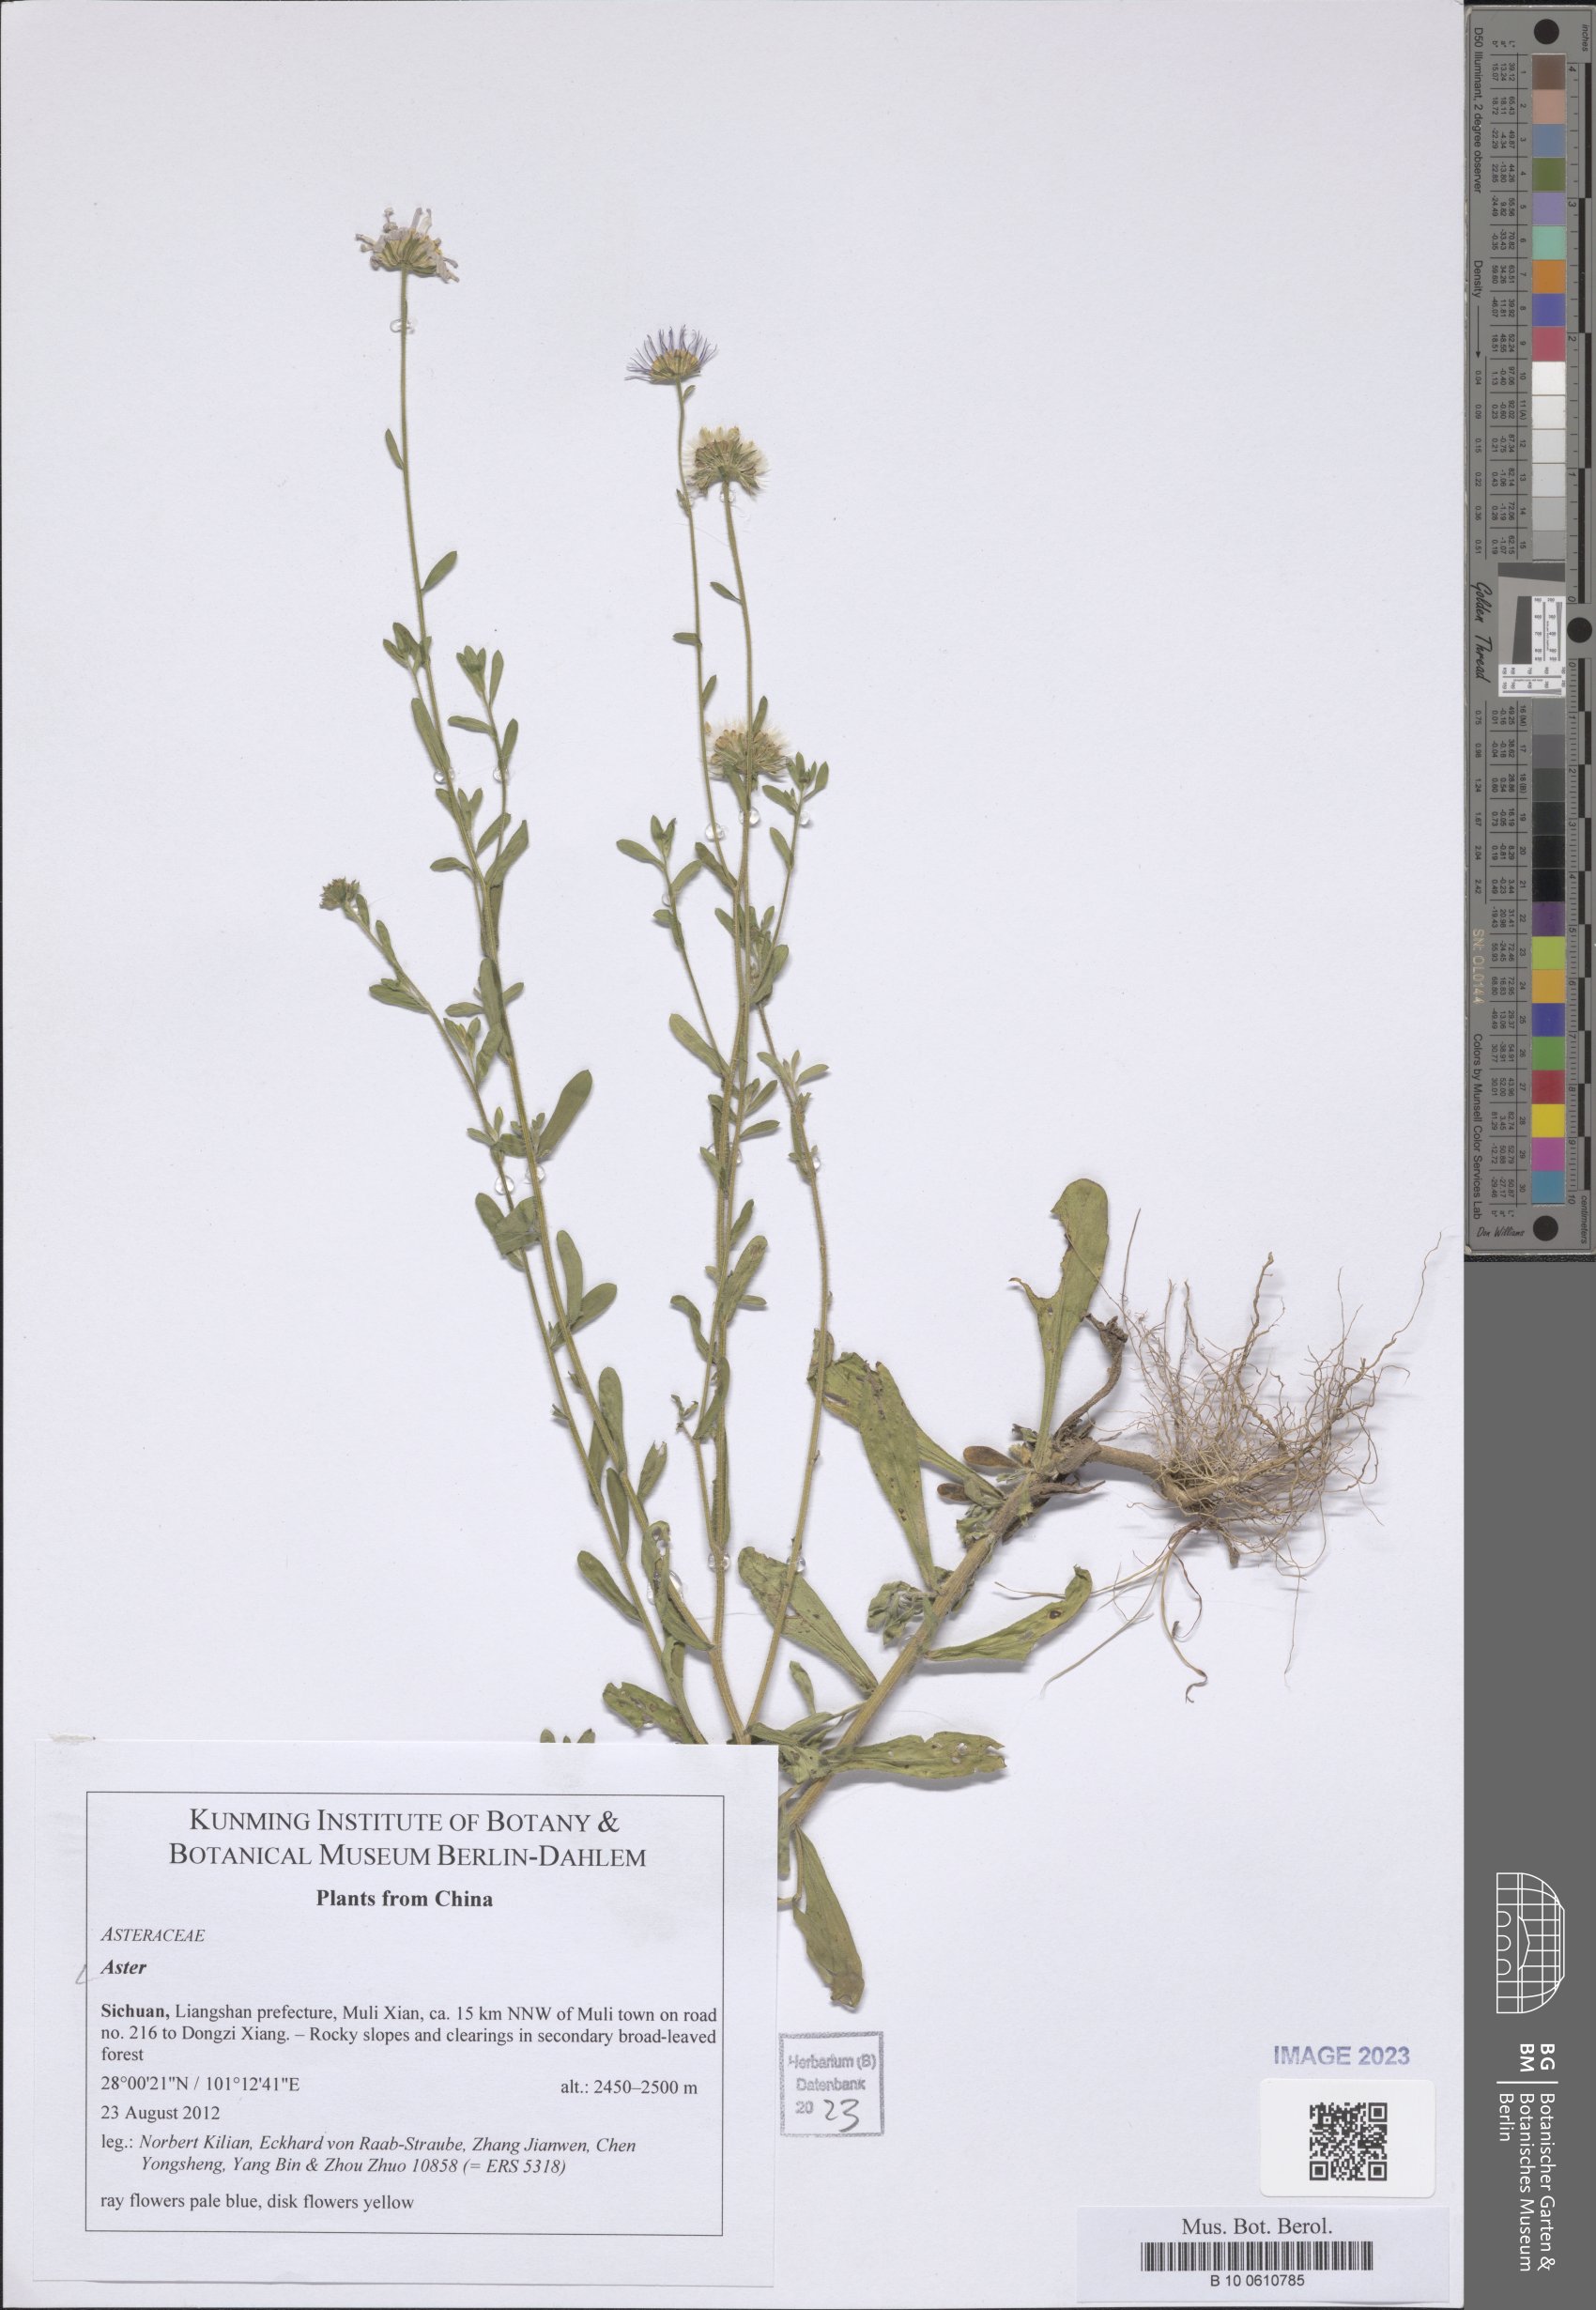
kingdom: Plantae
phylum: Tracheophyta
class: Magnoliopsida
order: Asterales
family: Asteraceae
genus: Aster
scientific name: Aster
